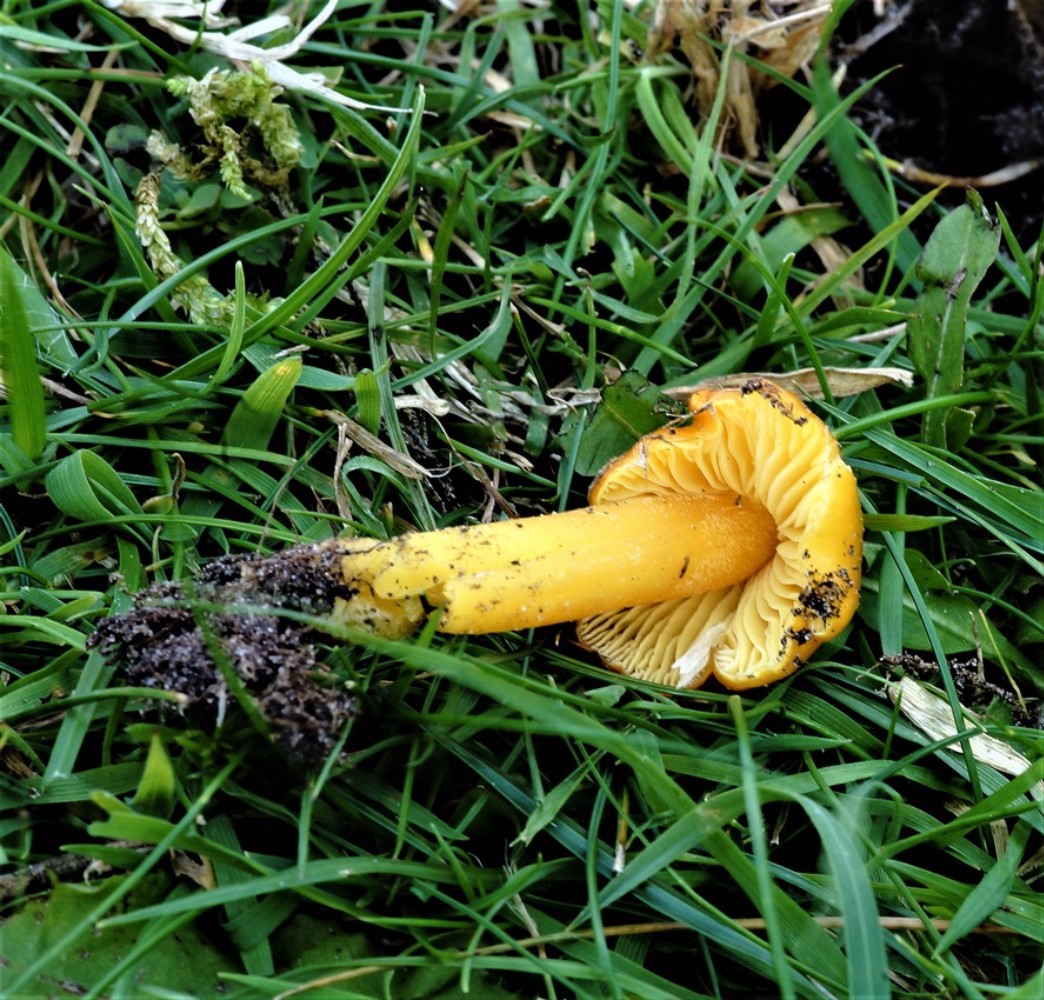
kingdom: Fungi
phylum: Basidiomycota
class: Agaricomycetes
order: Agaricales
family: Hygrophoraceae
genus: Hygrocybe
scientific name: Hygrocybe chlorophana
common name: gul vokshat
